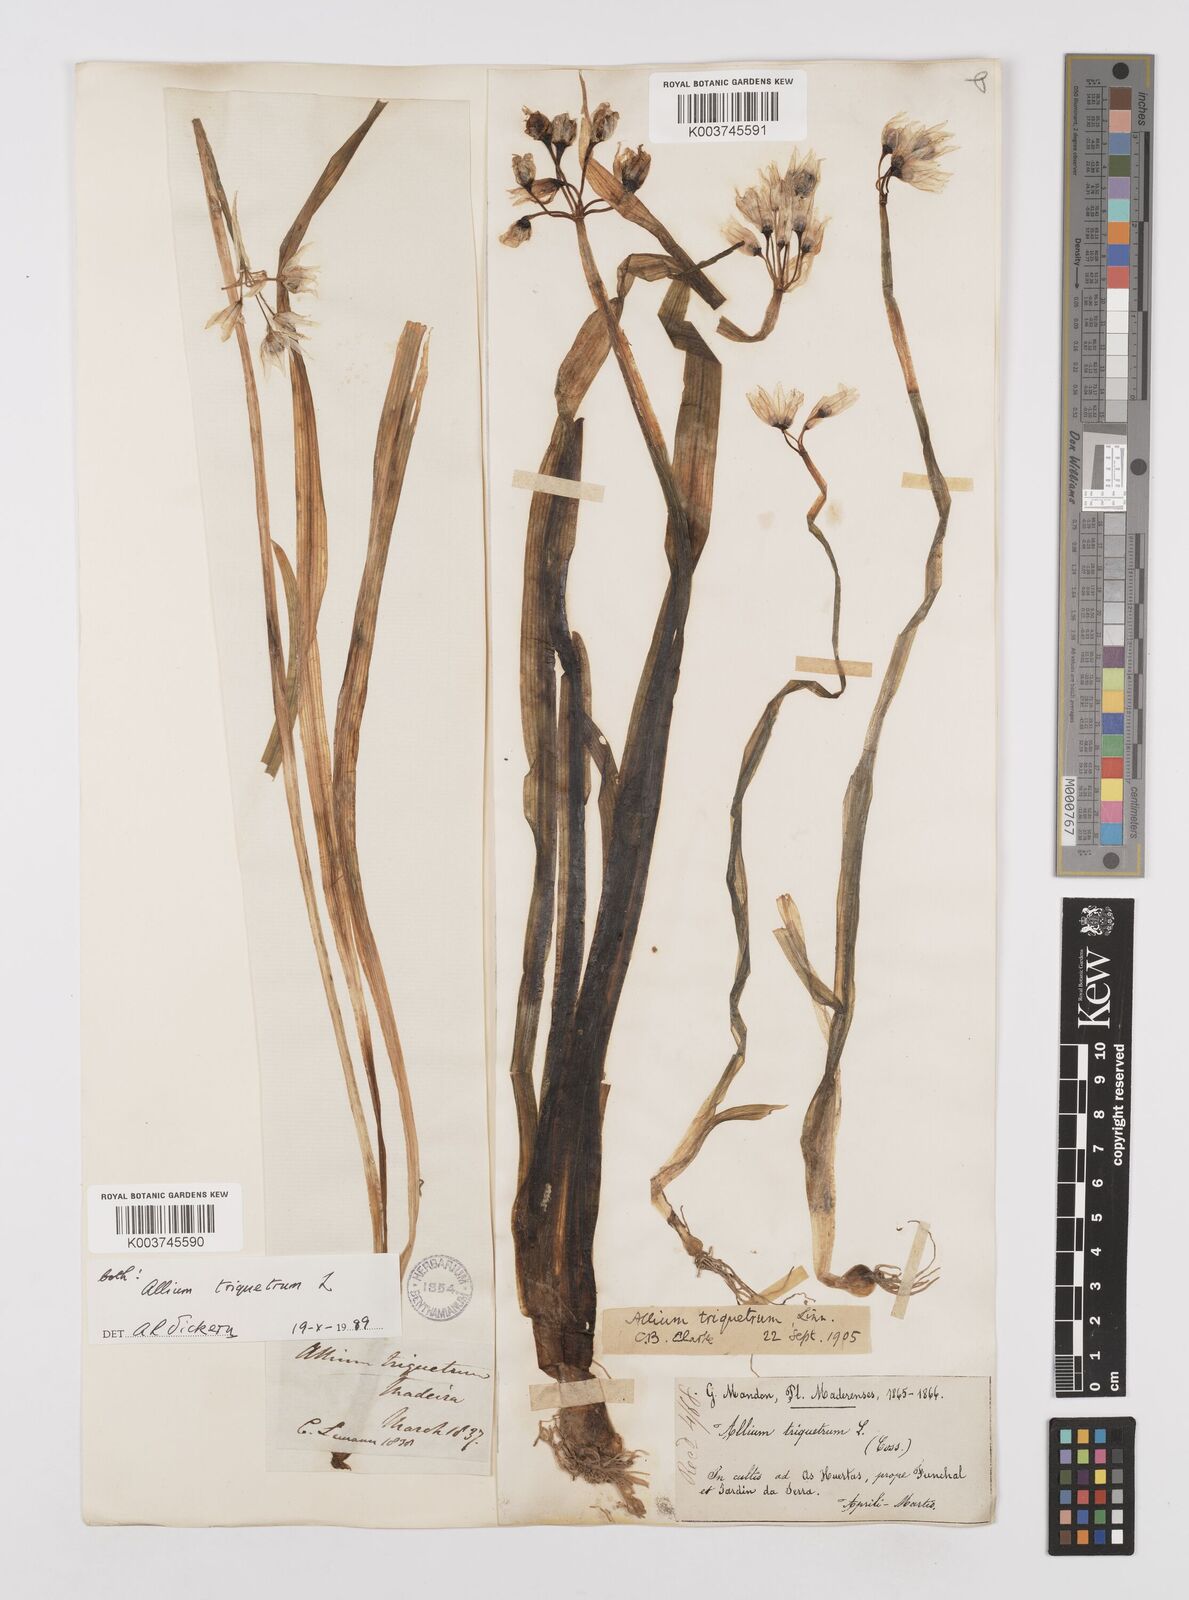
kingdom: Plantae
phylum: Tracheophyta
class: Liliopsida
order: Asparagales
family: Amaryllidaceae
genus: Allium
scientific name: Allium triquetrum
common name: Three-cornered garlic
